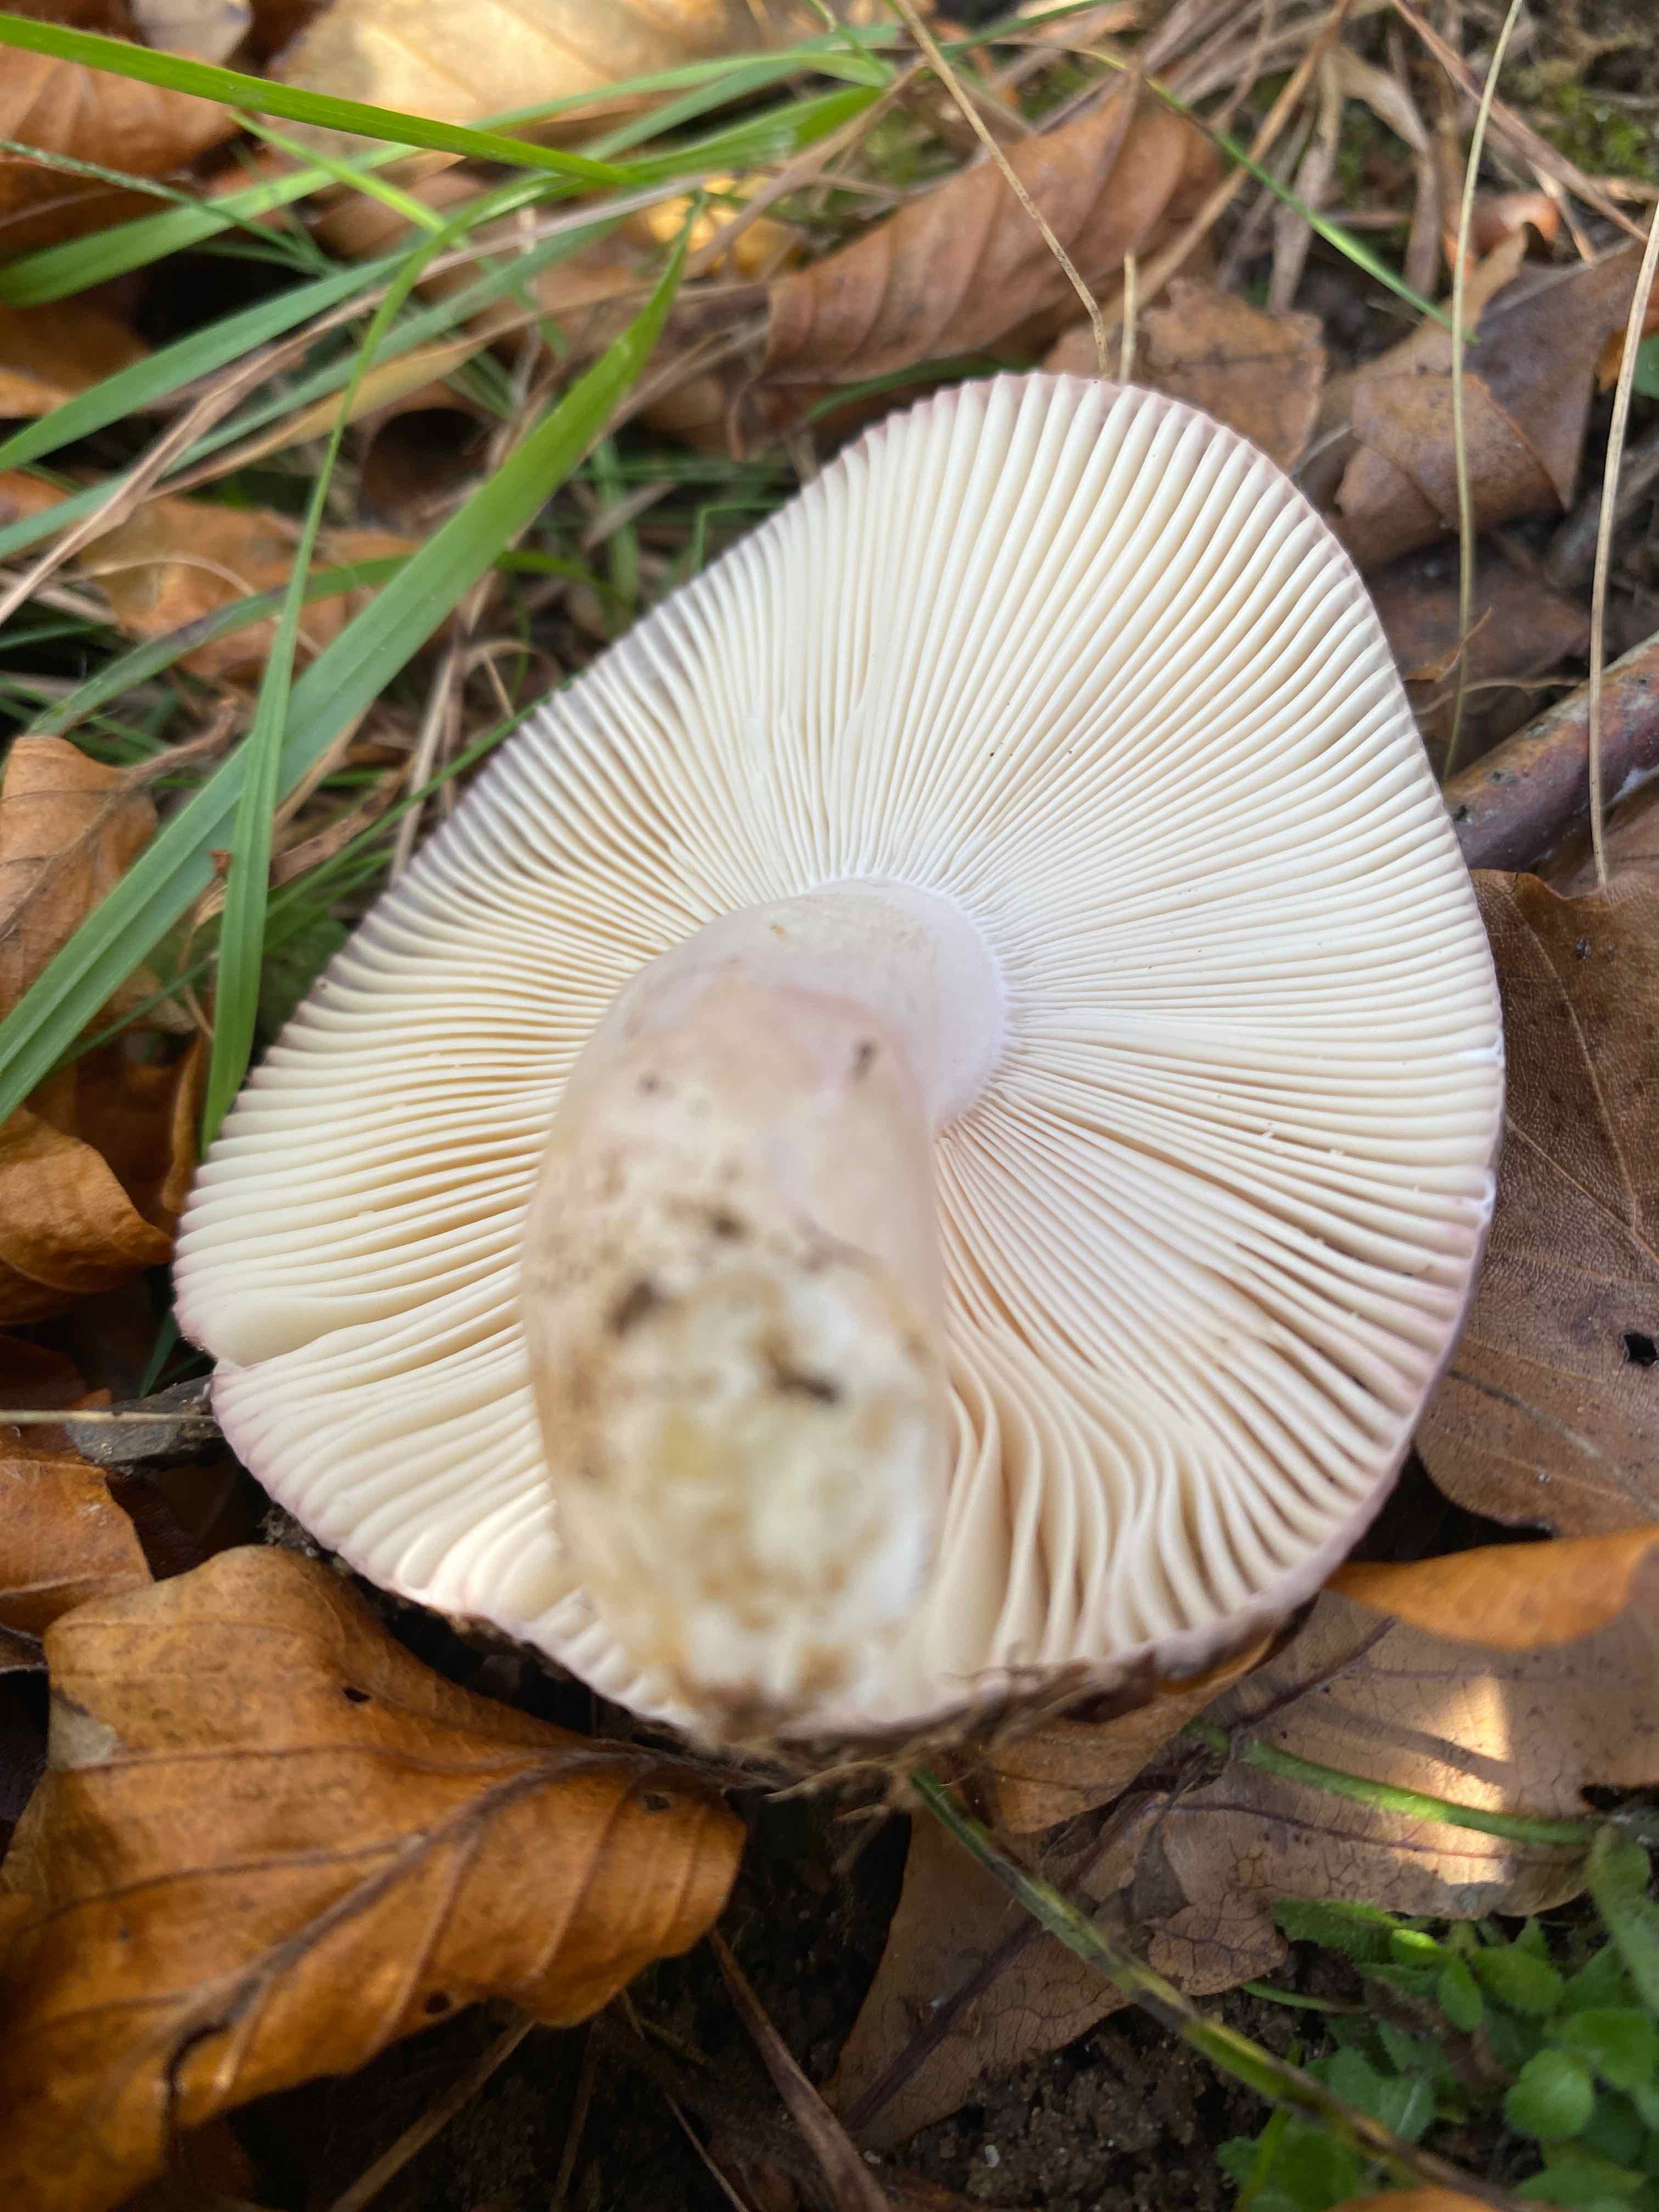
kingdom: Fungi
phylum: Basidiomycota
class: Agaricomycetes
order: Russulales
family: Russulaceae
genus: Russula
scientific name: Russula cyanoxantha
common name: broget skørhat
